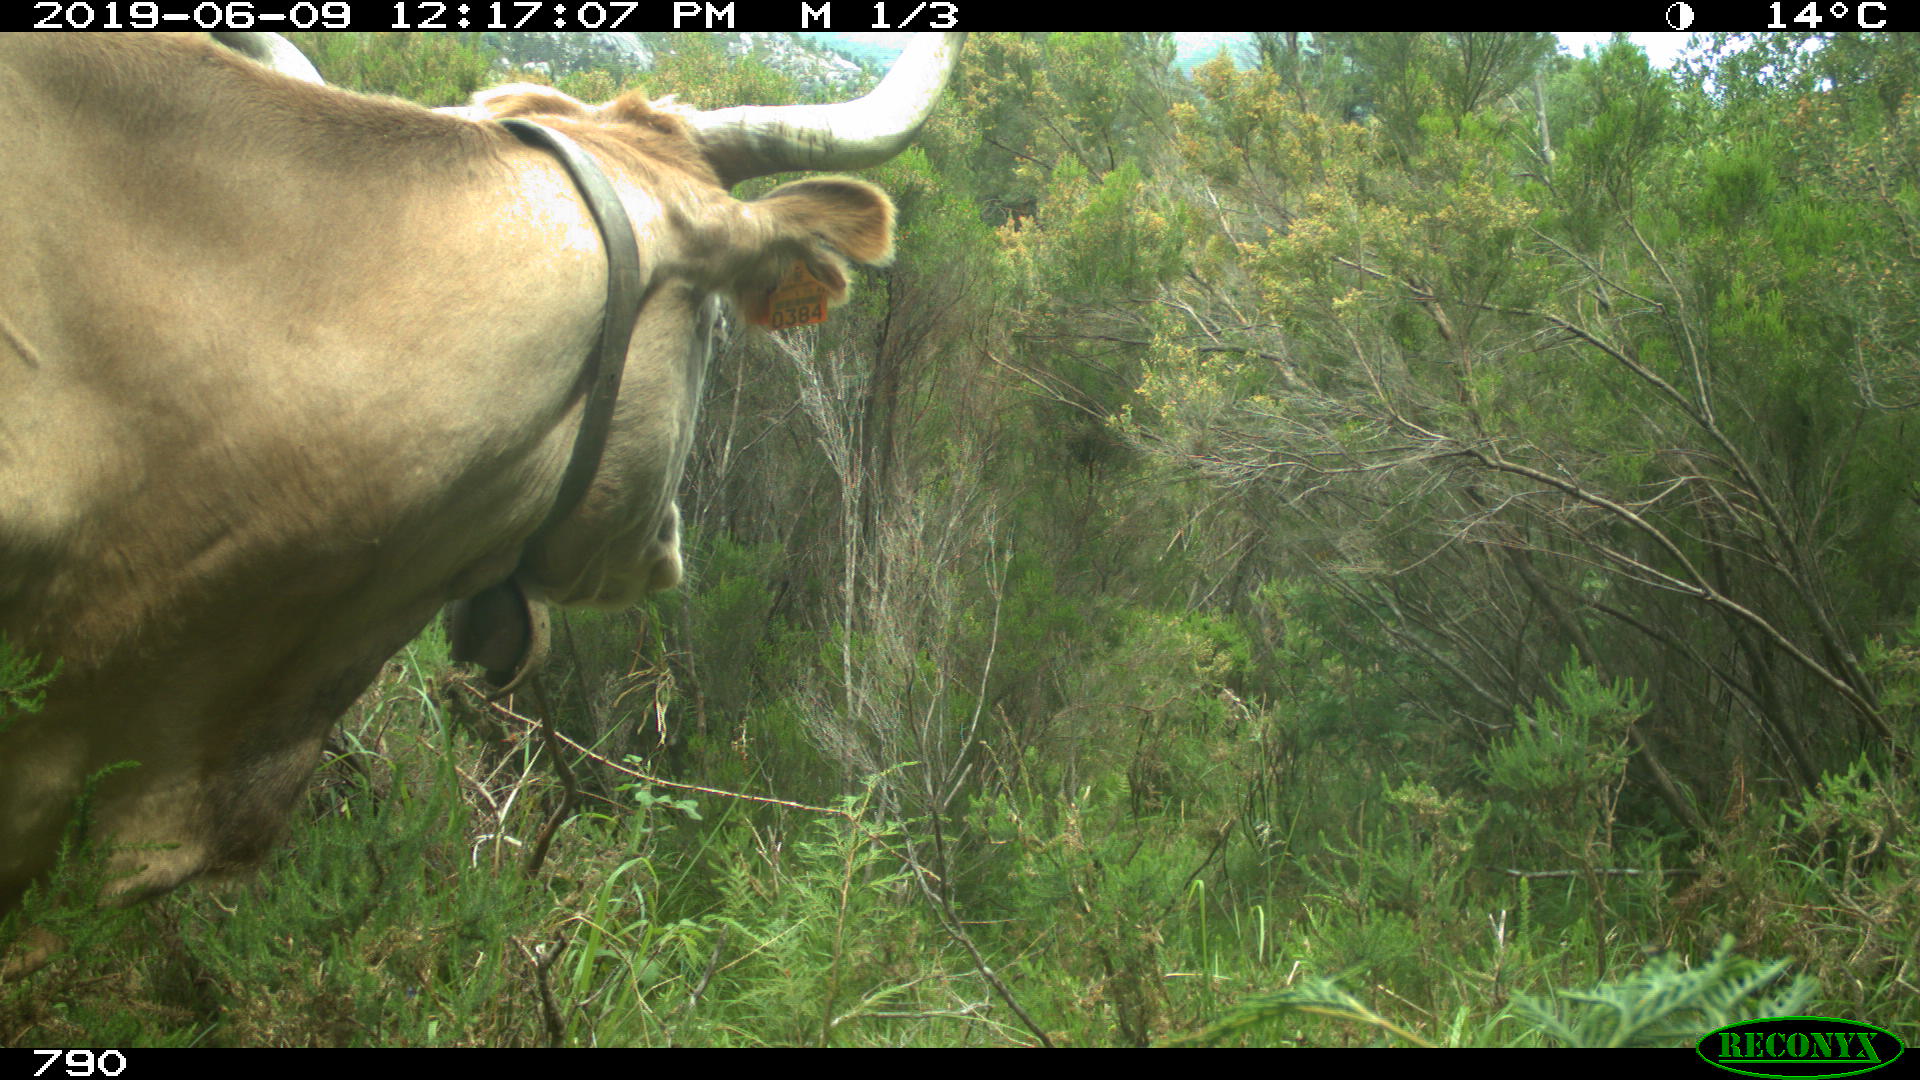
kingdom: Animalia
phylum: Chordata
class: Mammalia
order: Artiodactyla
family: Bovidae
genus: Bos
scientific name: Bos taurus
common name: Domesticated cattle
